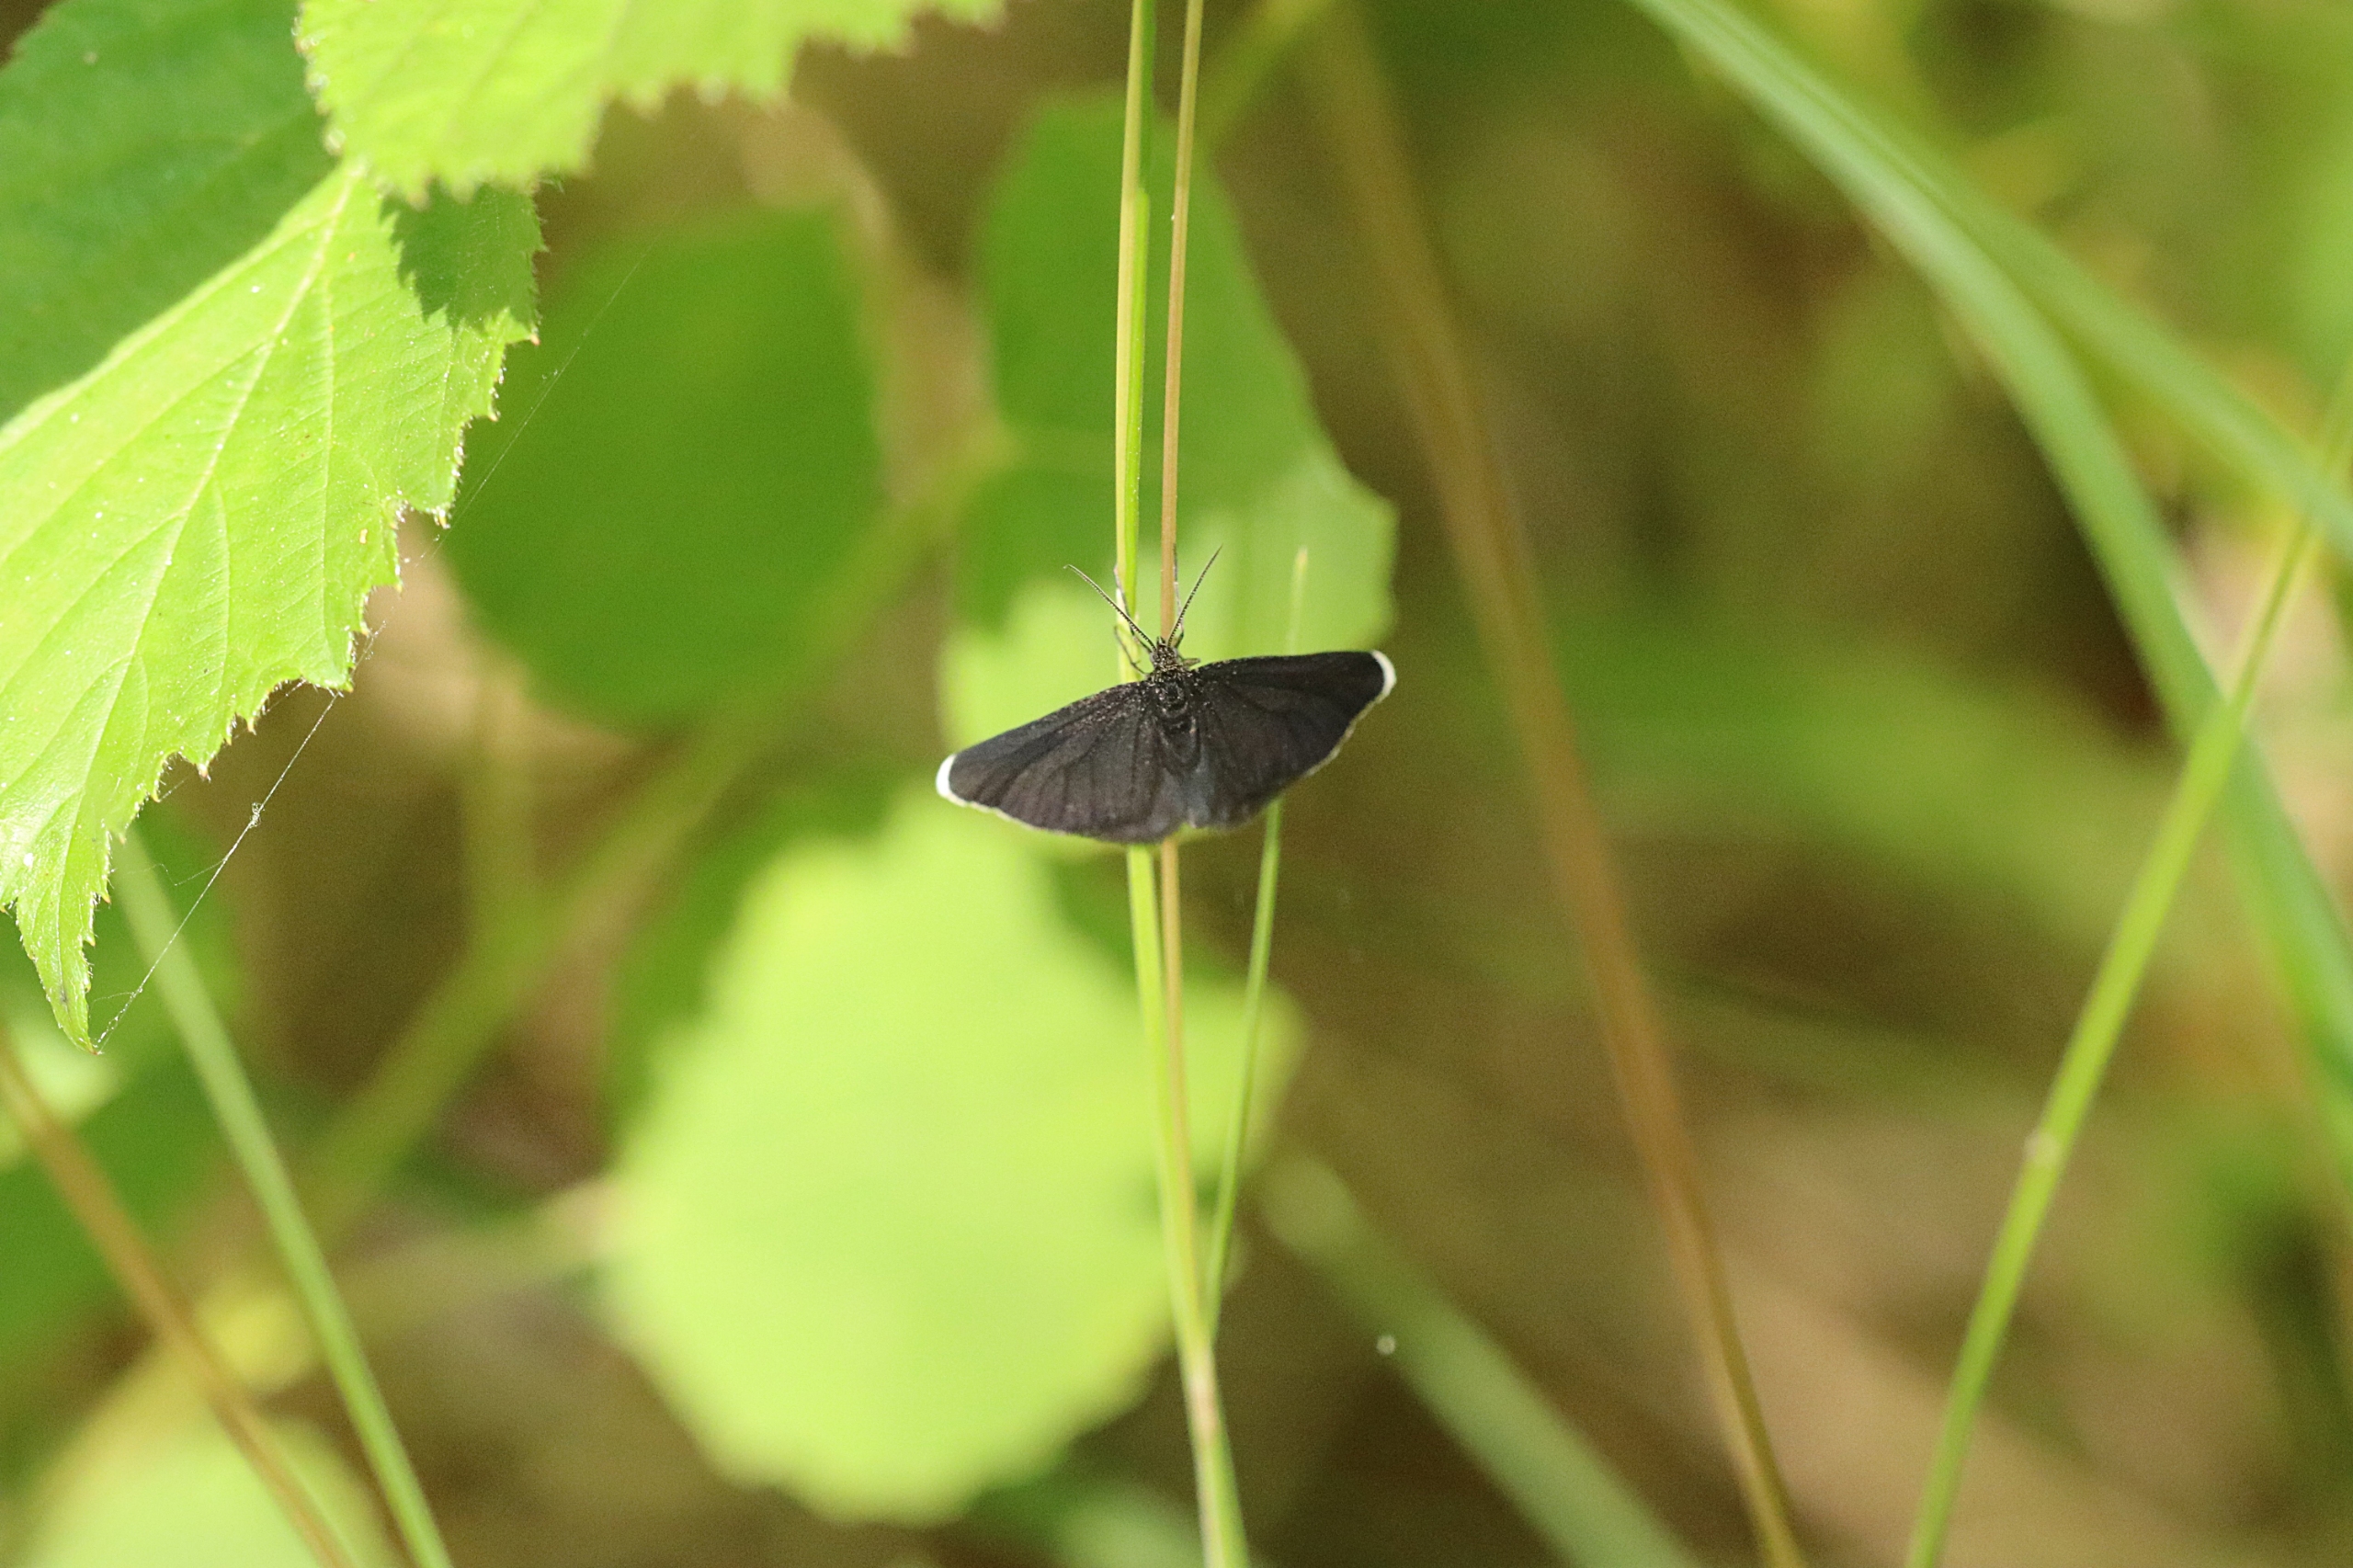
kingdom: Animalia
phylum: Arthropoda
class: Insecta
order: Lepidoptera
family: Geometridae
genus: Odezia
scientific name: Odezia atrata
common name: Sort måler
